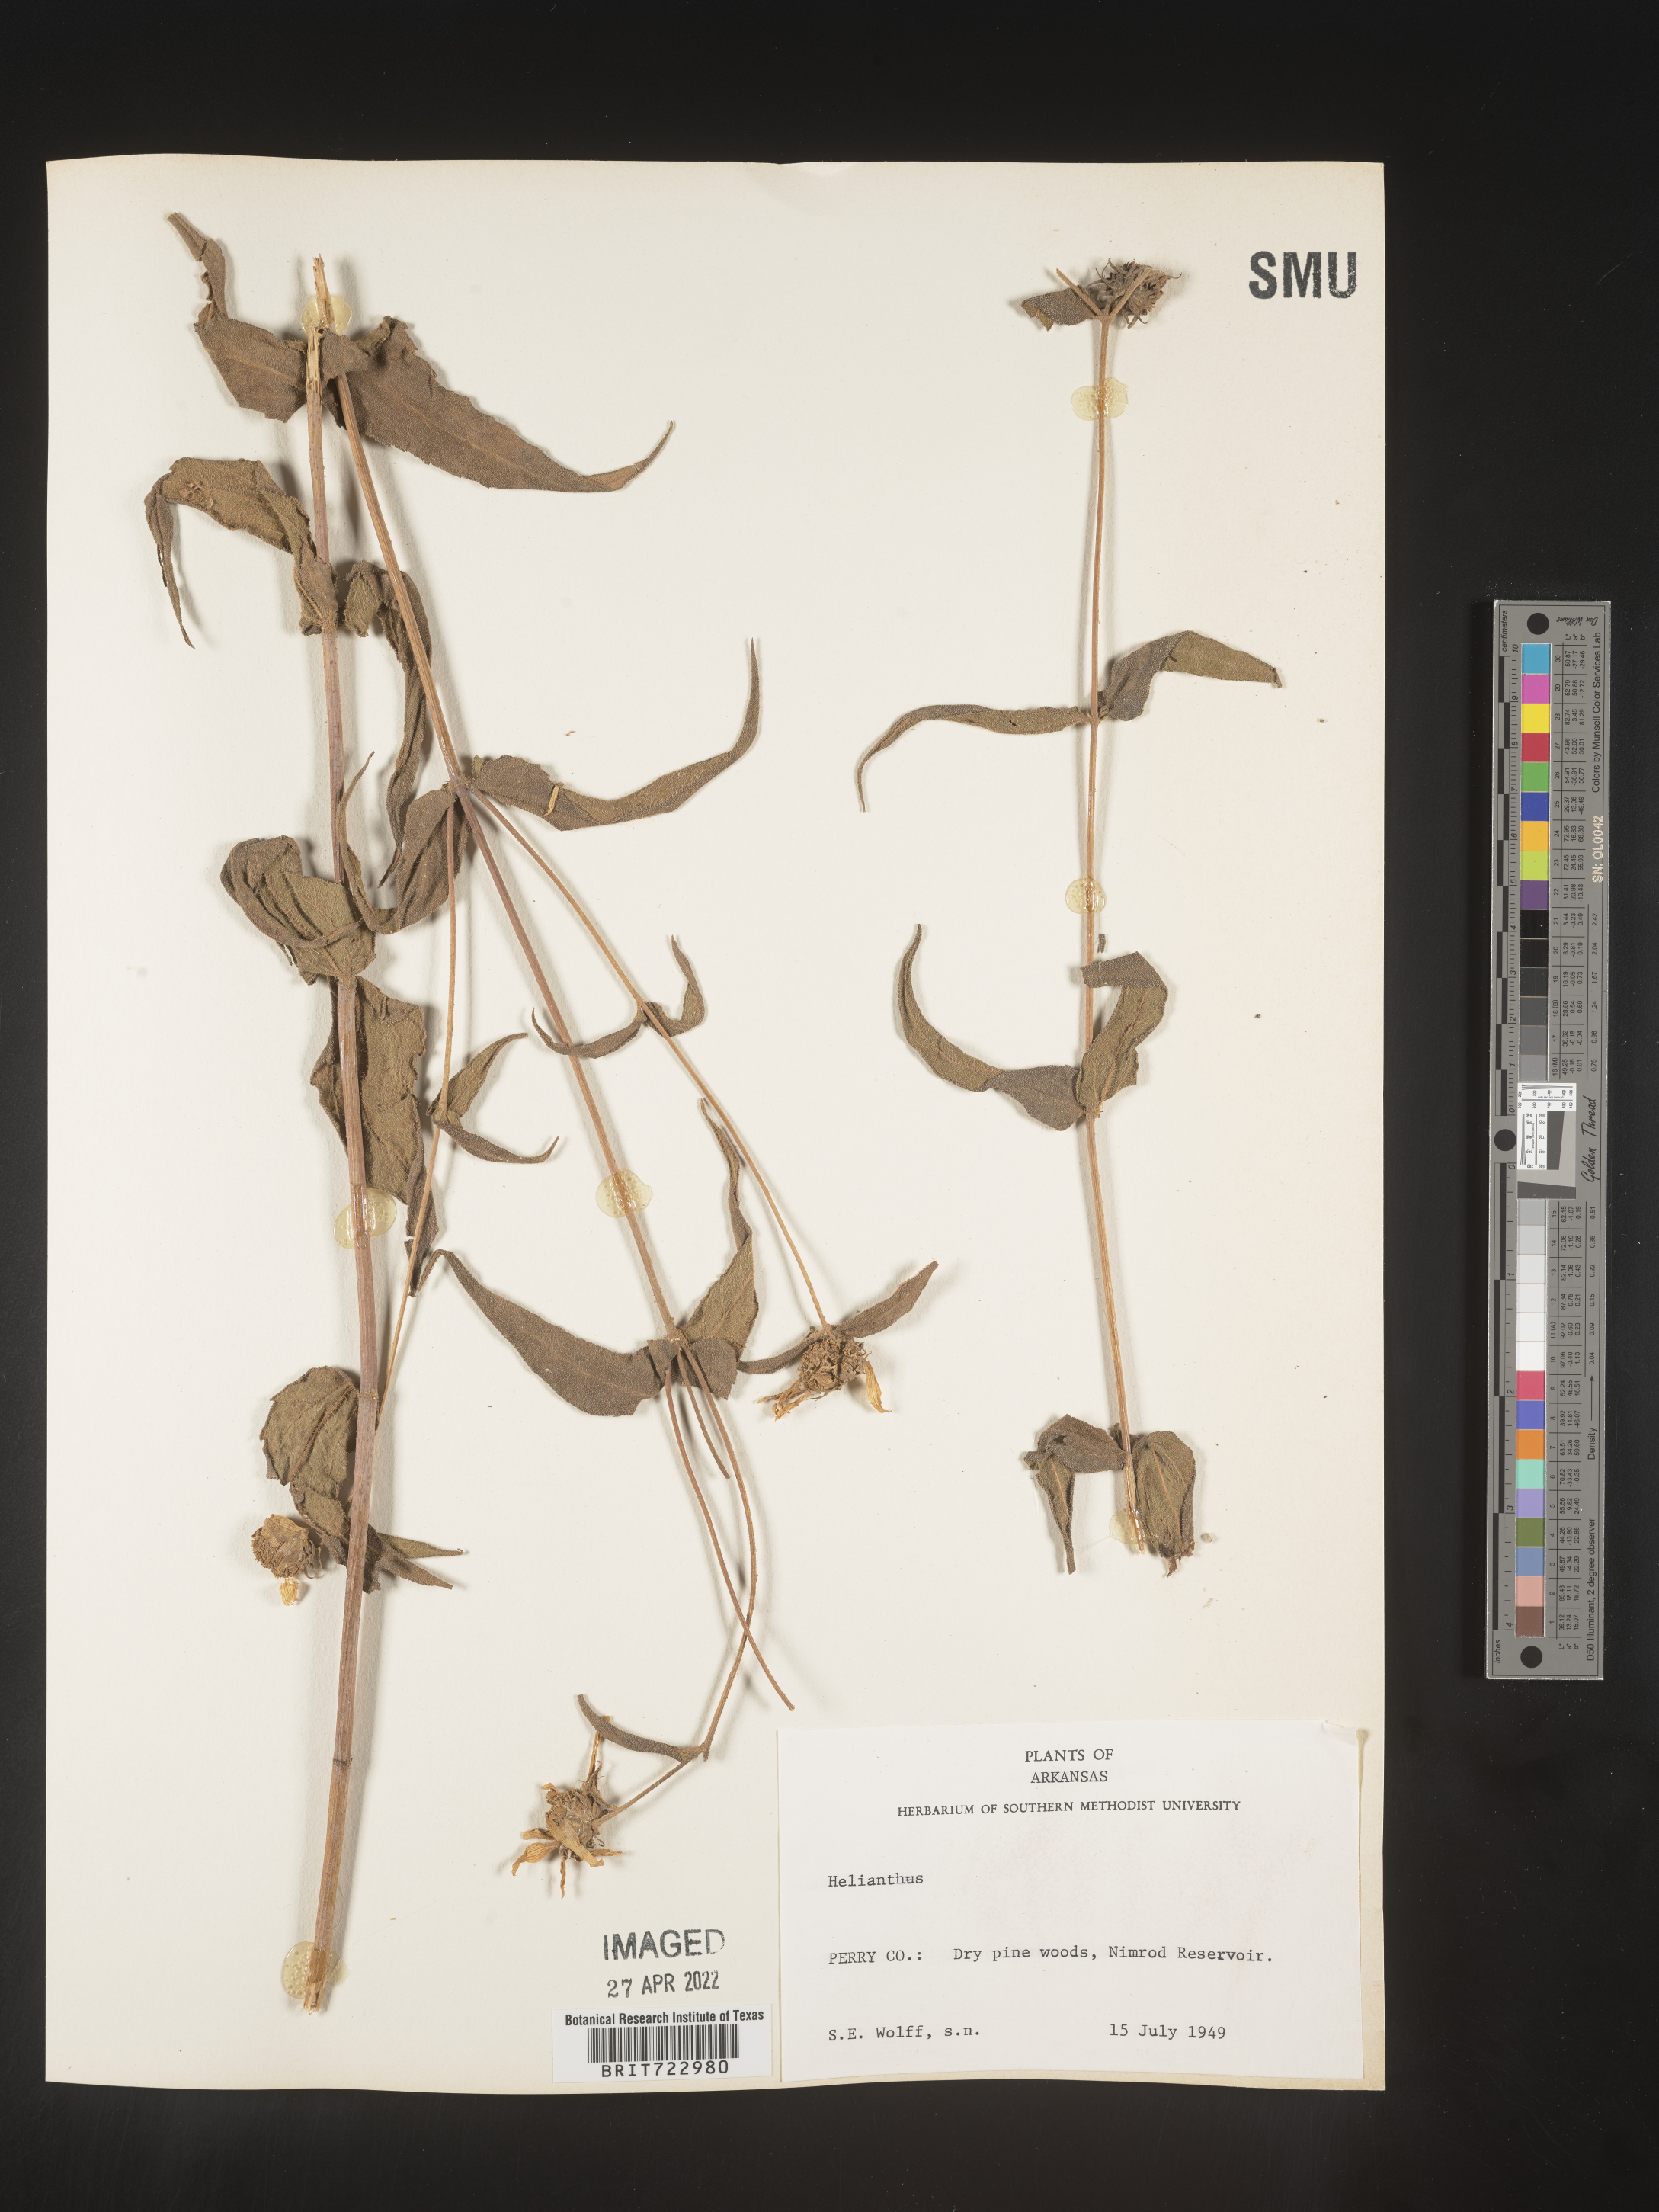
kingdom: Plantae
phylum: Tracheophyta
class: Magnoliopsida
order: Asterales
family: Asteraceae
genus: Helianthus
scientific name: Helianthus
